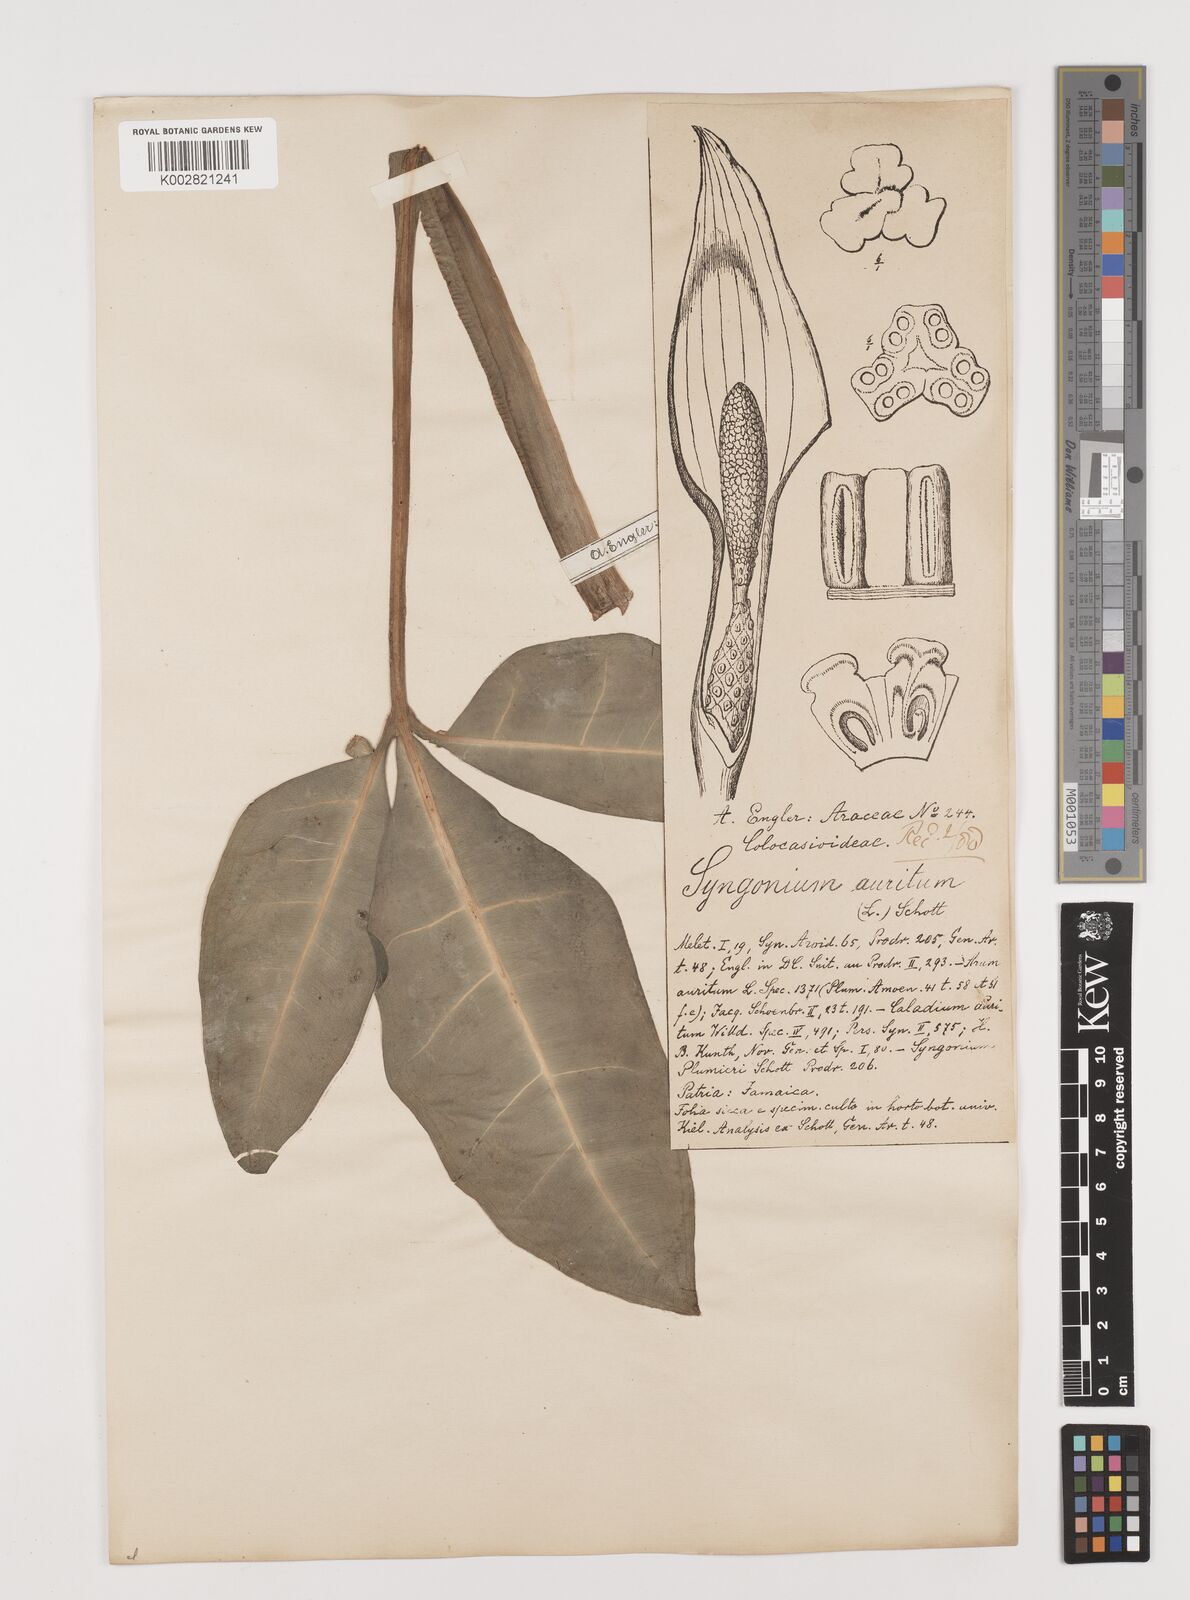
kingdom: Plantae
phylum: Tracheophyta
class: Liliopsida
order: Alismatales
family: Araceae
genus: Syngonium
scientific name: Syngonium auritum
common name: Five-fingers
